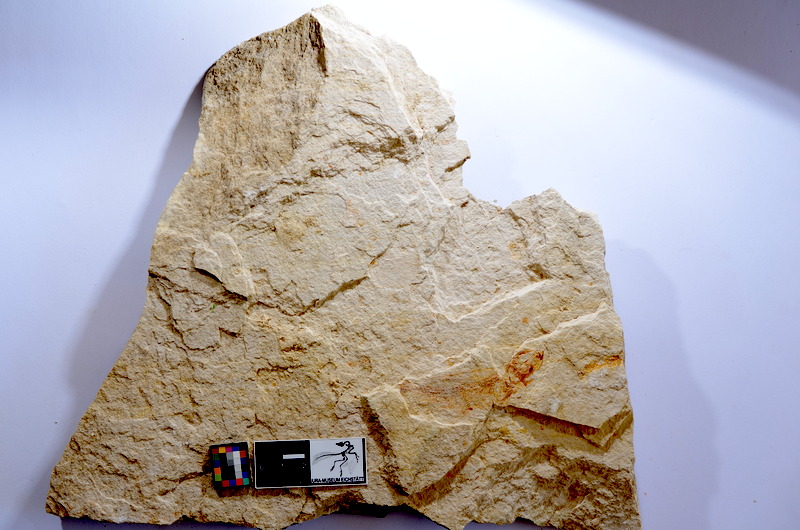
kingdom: Animalia
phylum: Chordata
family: Ascalaboidae
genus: Tharsis
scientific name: Tharsis dubius
